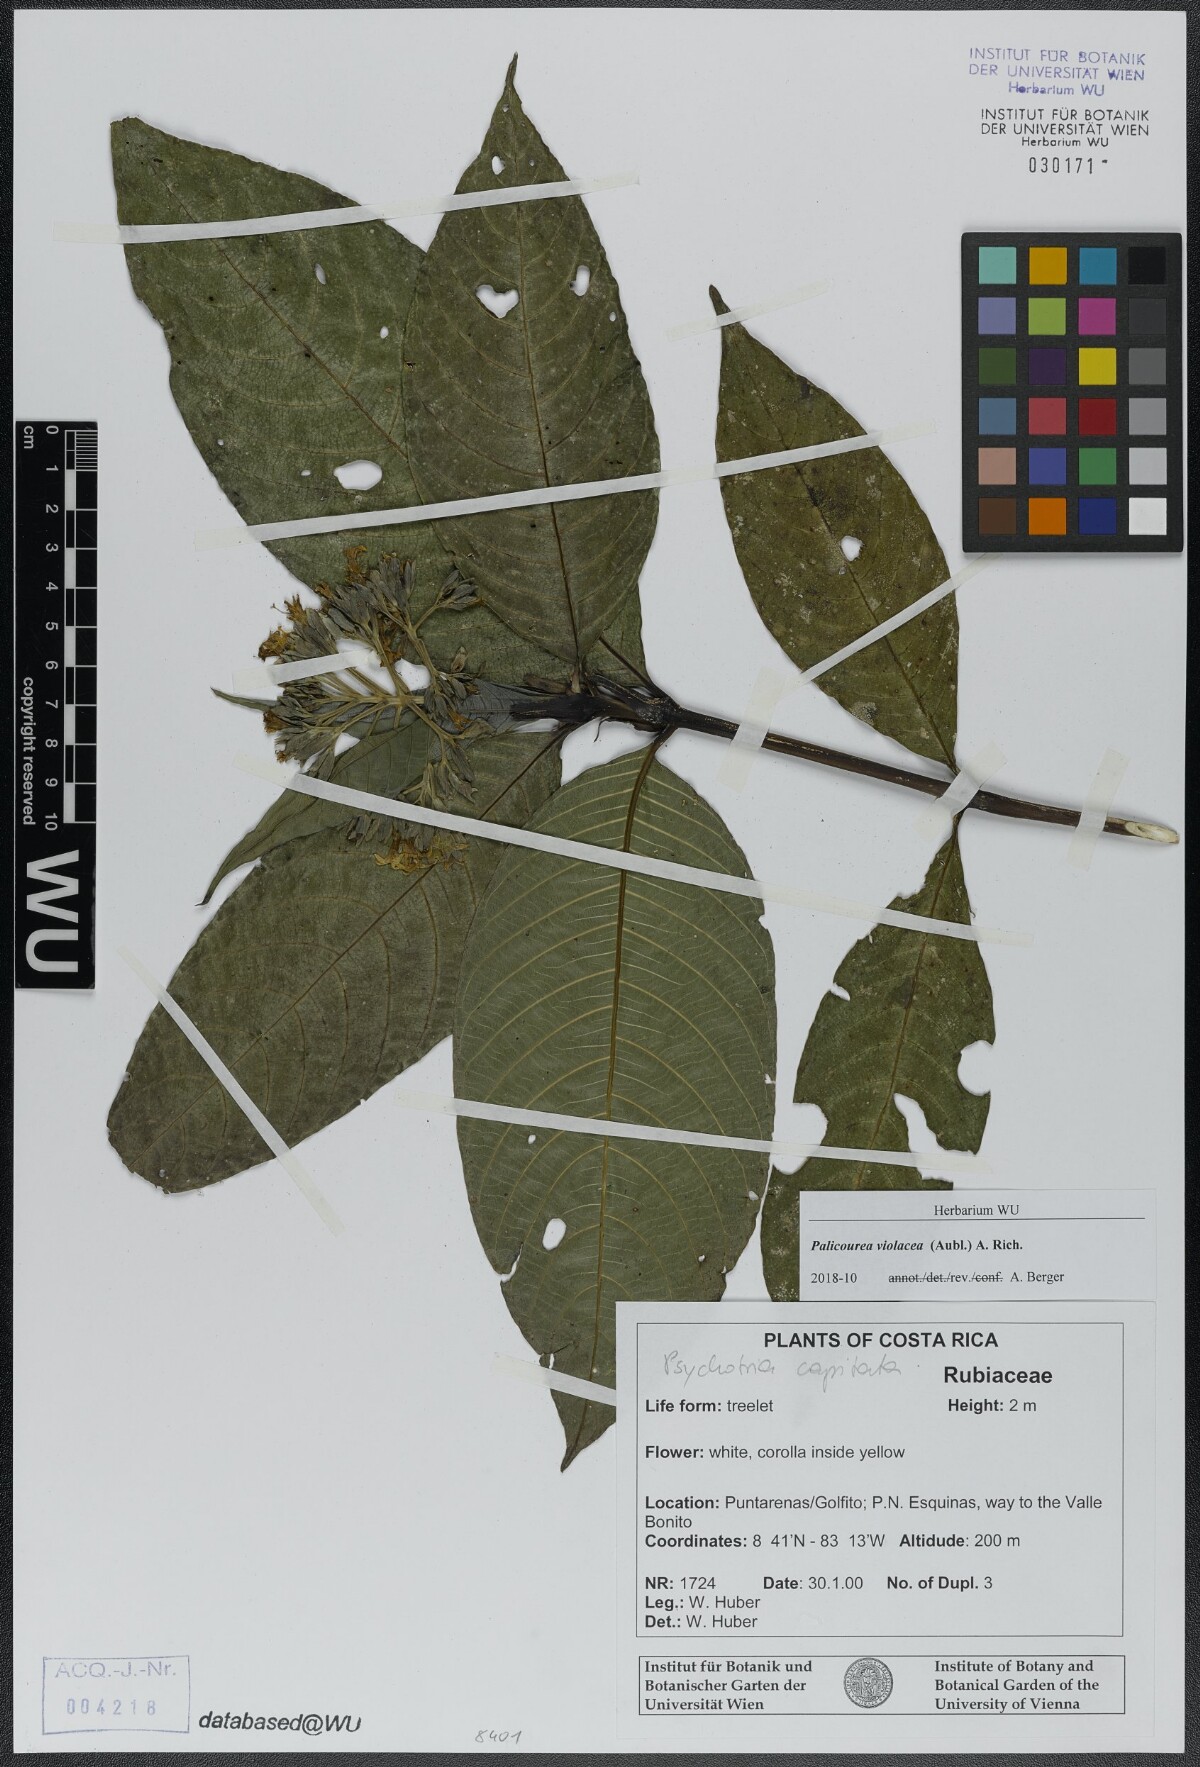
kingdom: Plantae
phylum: Tracheophyta
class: Magnoliopsida
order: Gentianales
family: Rubiaceae
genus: Palicourea
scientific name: Palicourea violacea
